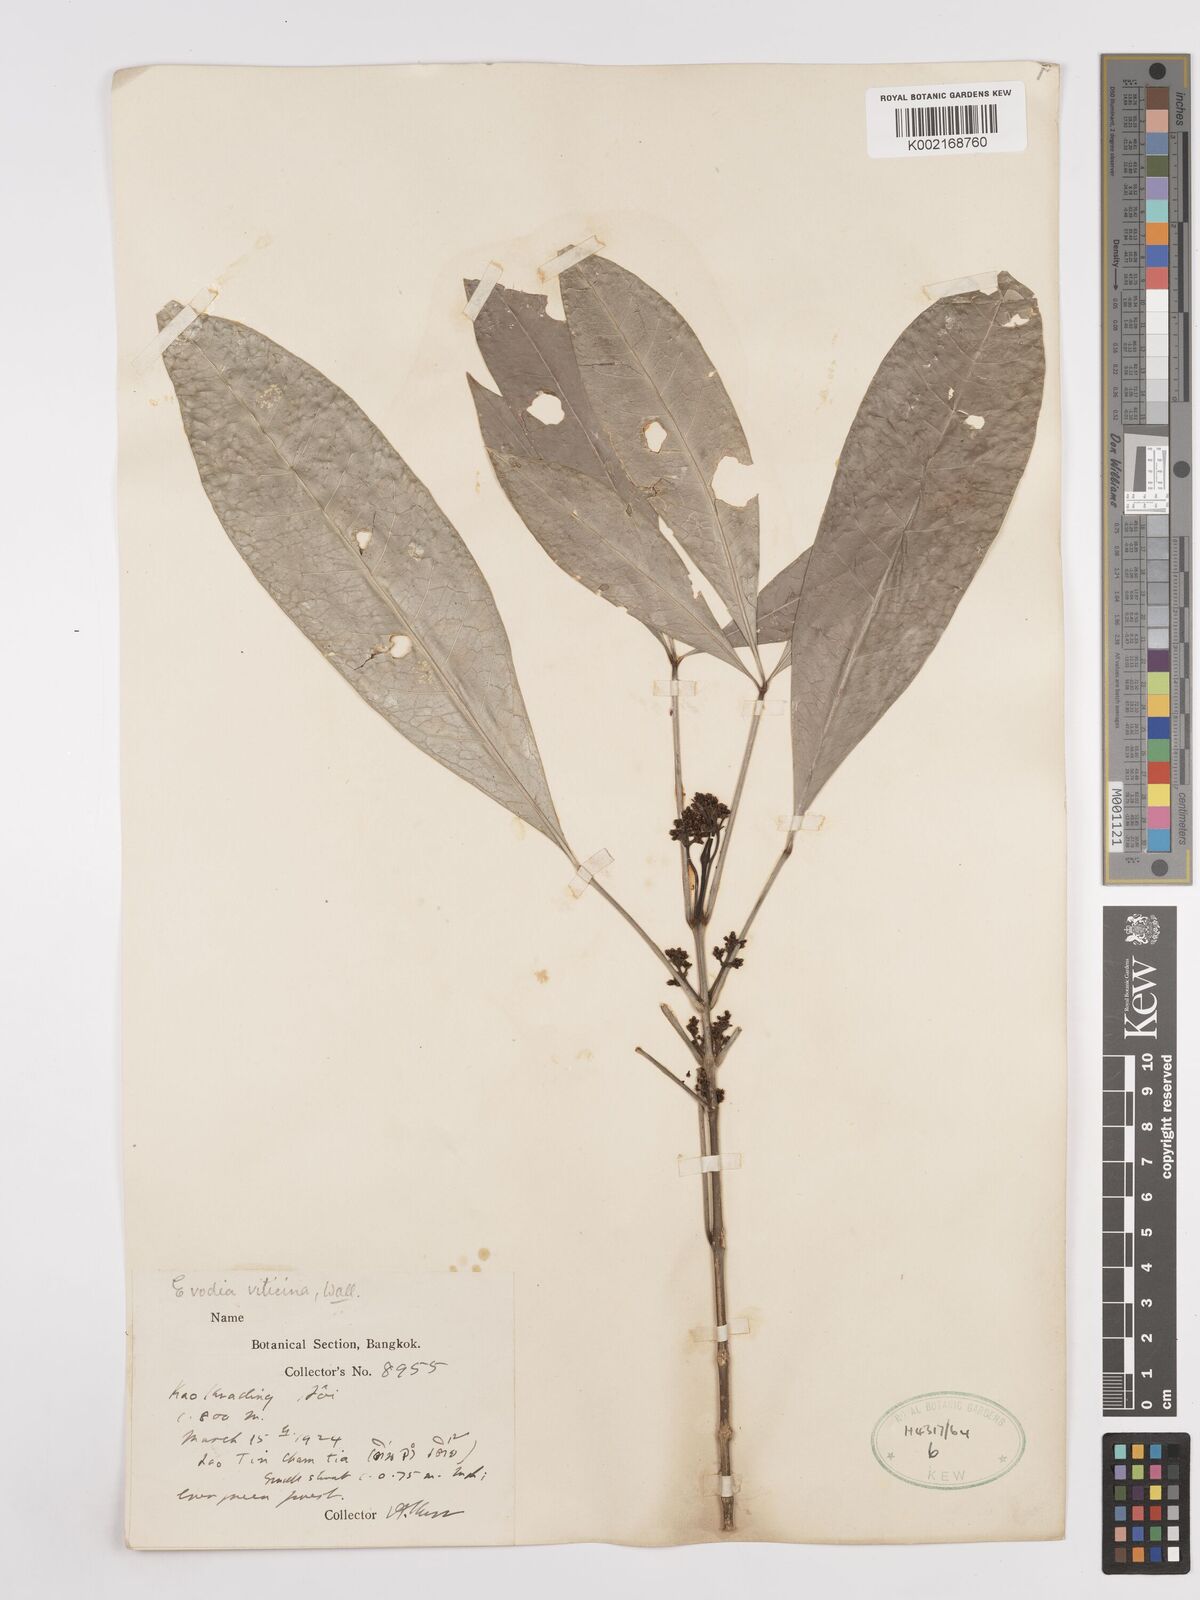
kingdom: Plantae
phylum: Tracheophyta
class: Magnoliopsida
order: Sapindales
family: Rutaceae
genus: Euodia
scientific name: Euodia
